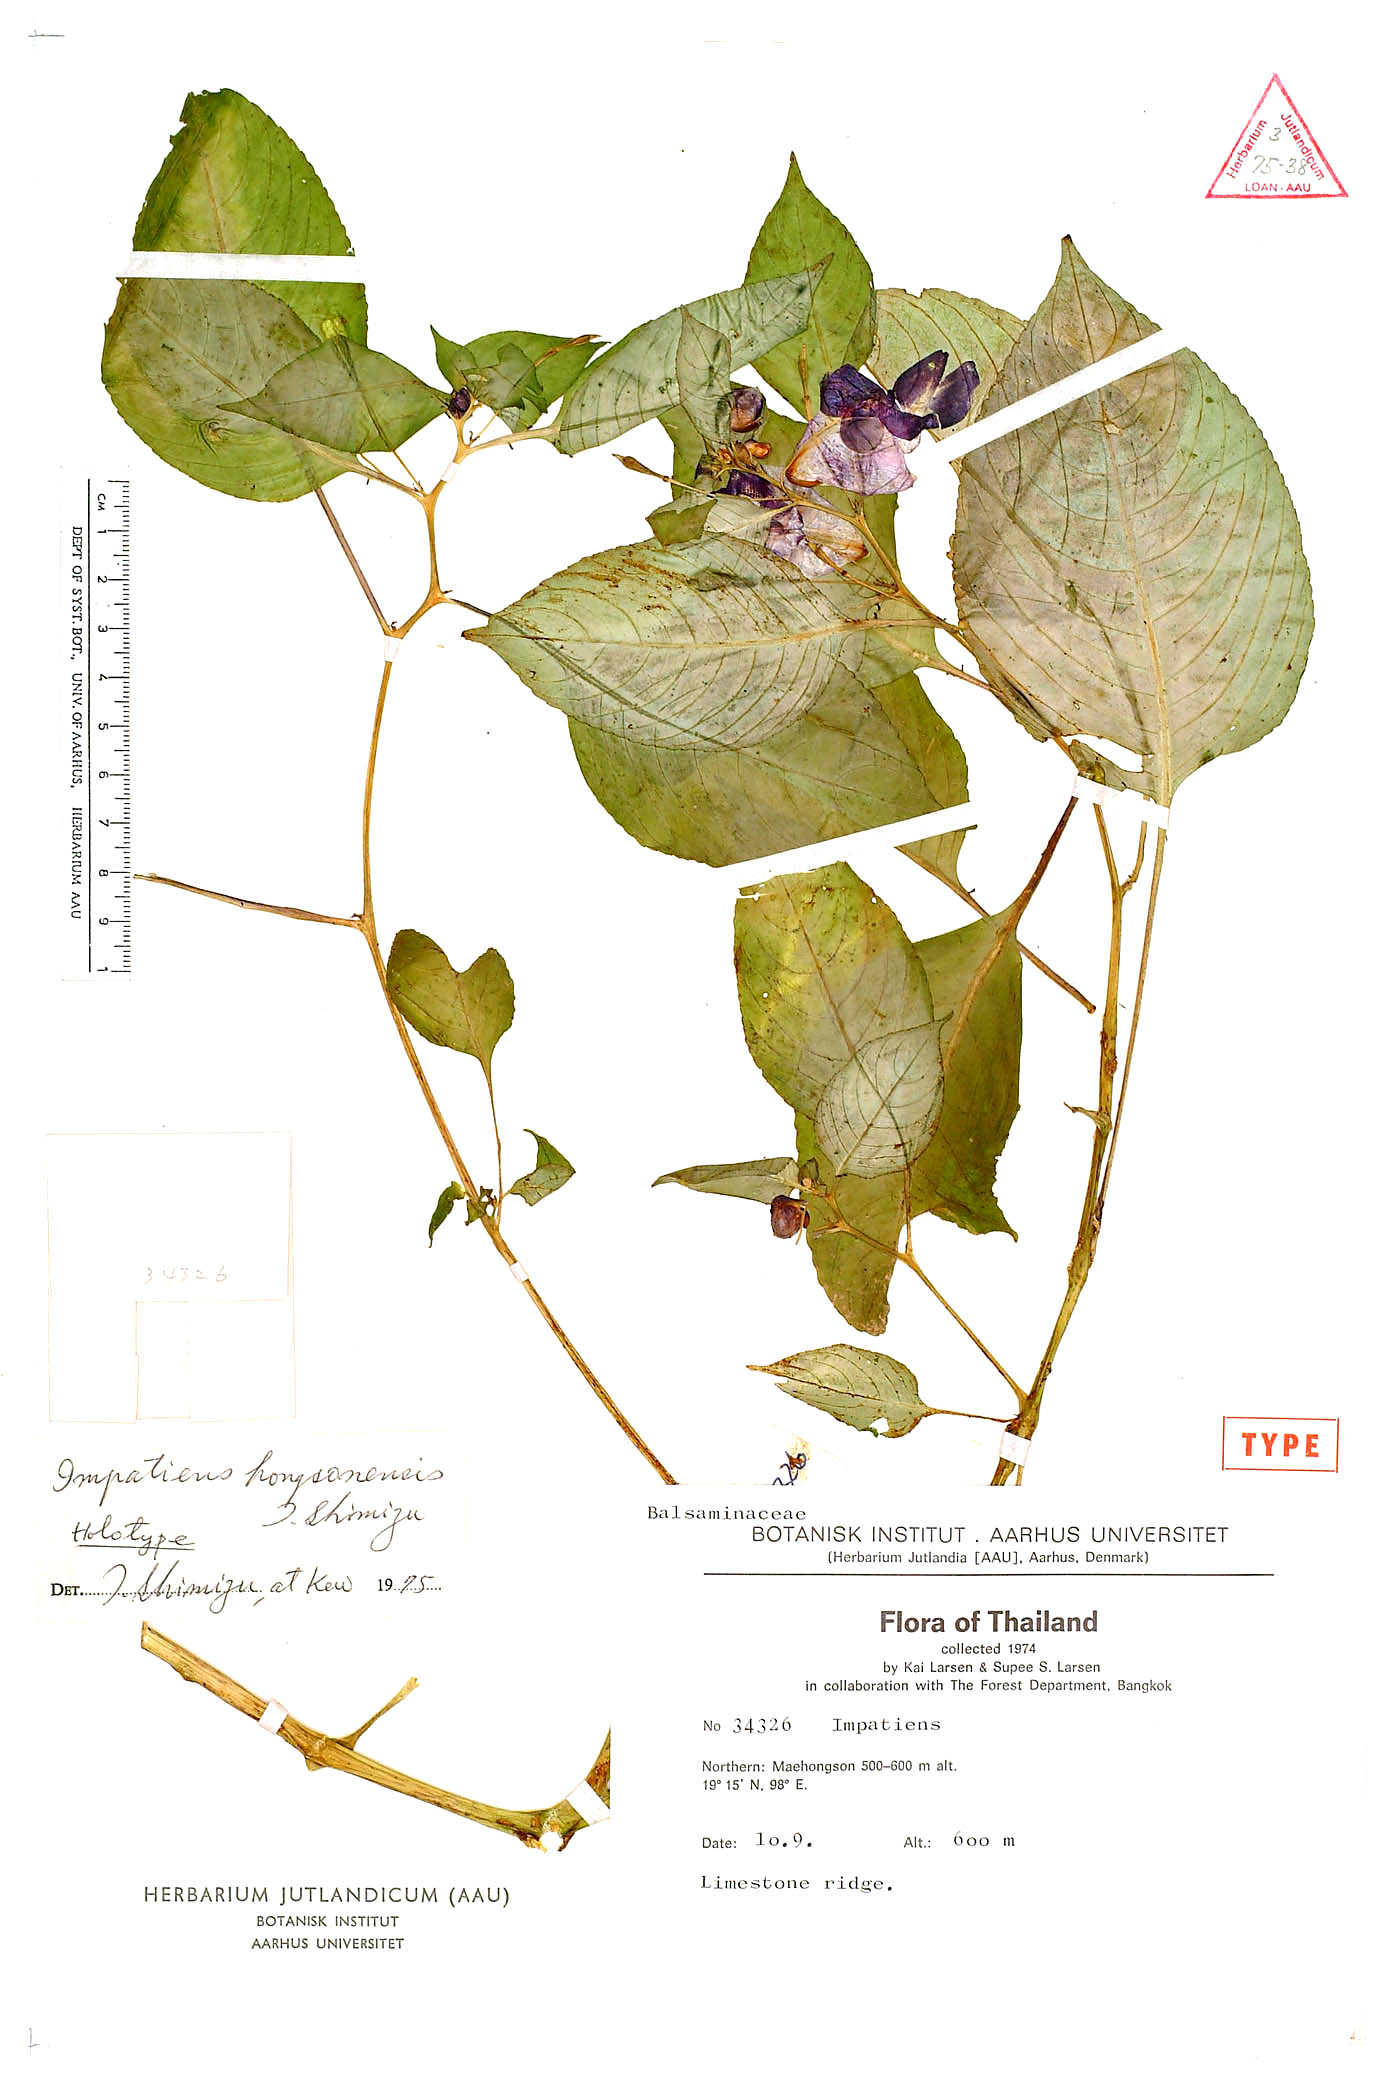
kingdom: Plantae
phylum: Tracheophyta
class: Magnoliopsida
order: Ericales
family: Balsaminaceae
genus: Impatiens
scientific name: Impatiens hongsonensis
